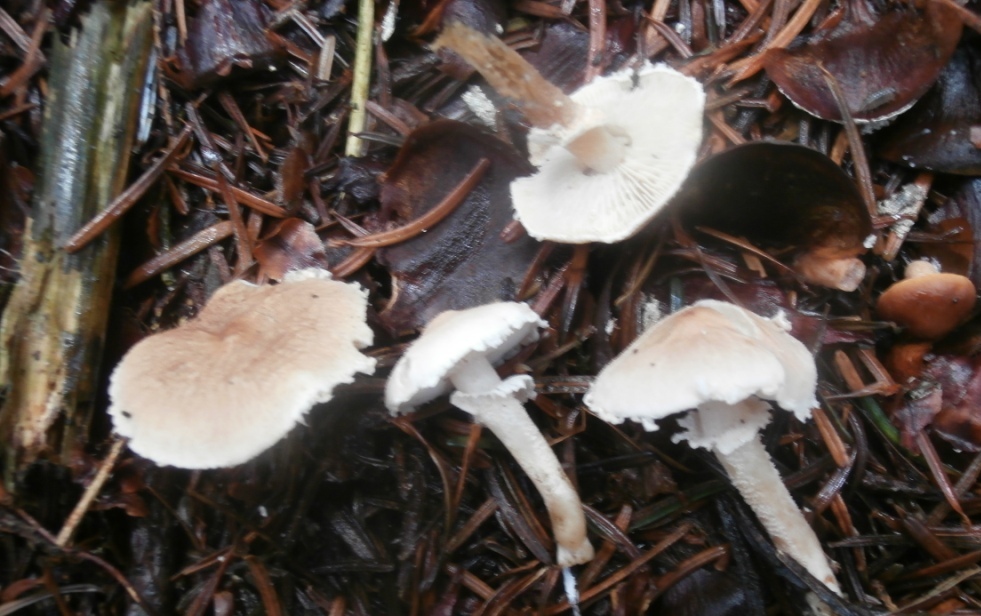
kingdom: Fungi
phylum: Basidiomycota
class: Agaricomycetes
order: Agaricales
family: Tricholomataceae
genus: Cystoderma
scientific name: Cystoderma carcharias
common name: rødgrå grynhat
